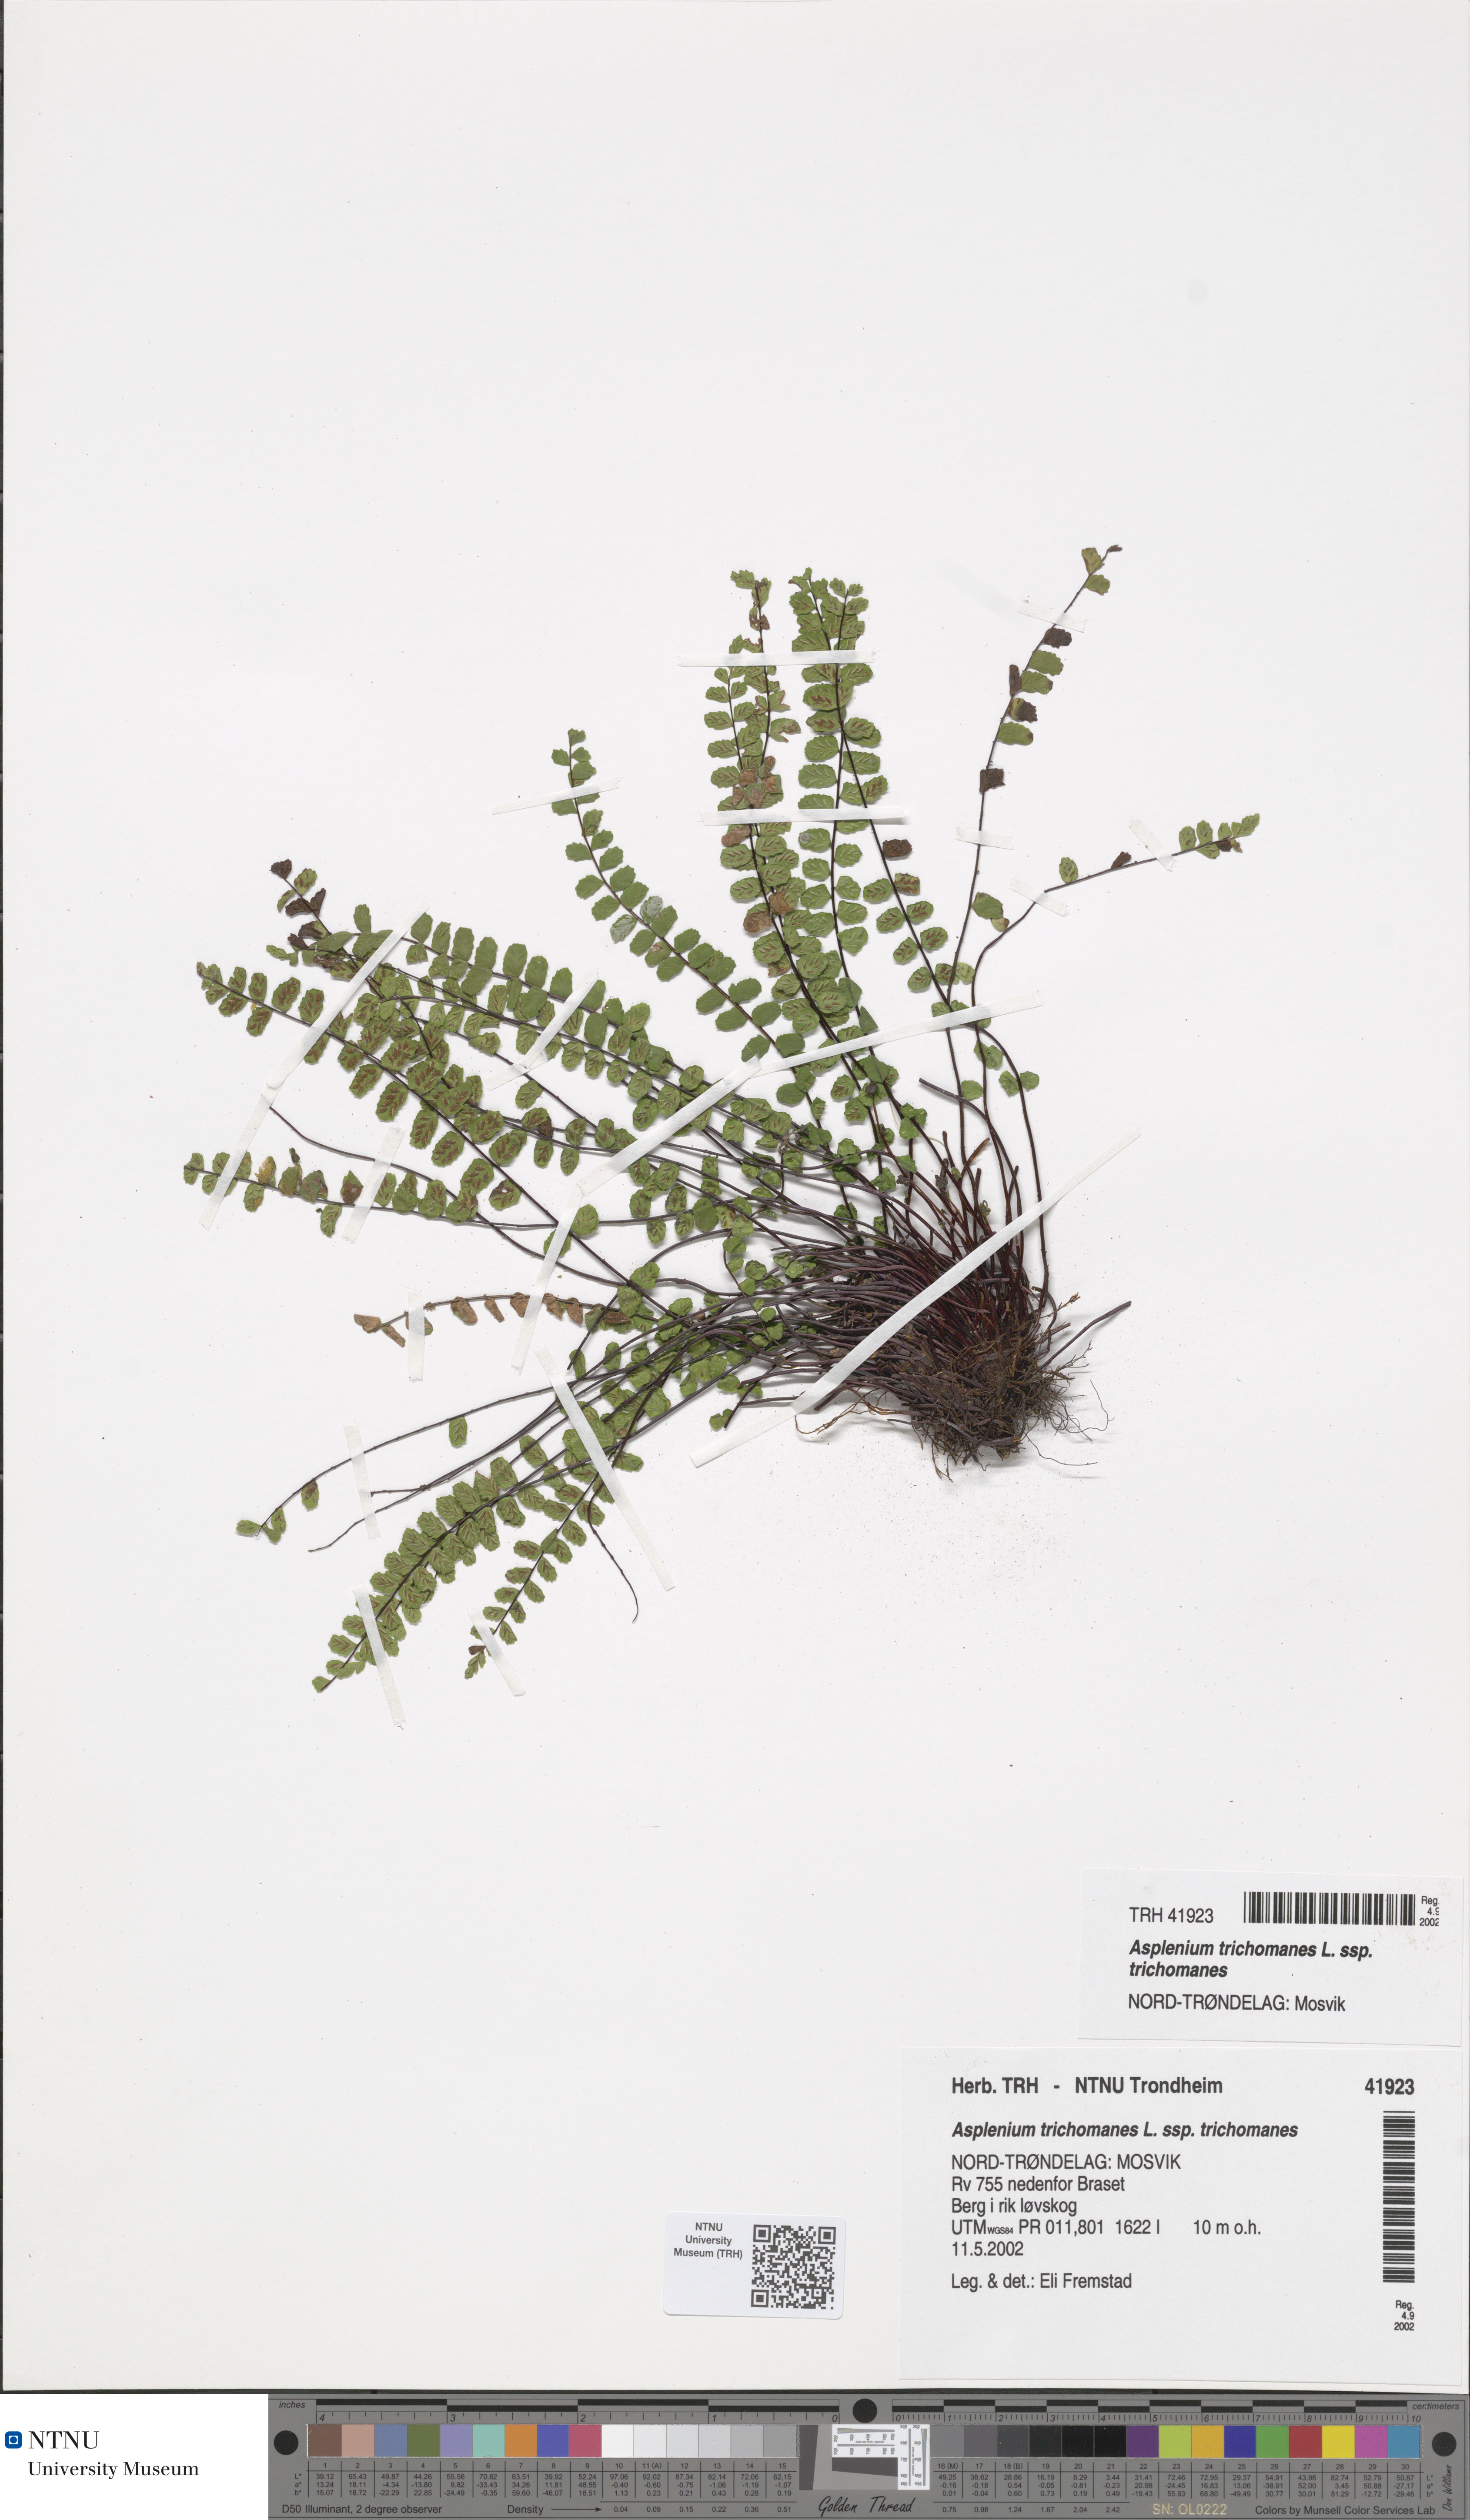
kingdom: Plantae
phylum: Tracheophyta
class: Polypodiopsida
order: Polypodiales
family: Aspleniaceae
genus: Asplenium
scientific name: Asplenium trichomanes
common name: Maidenhair spleenwort
